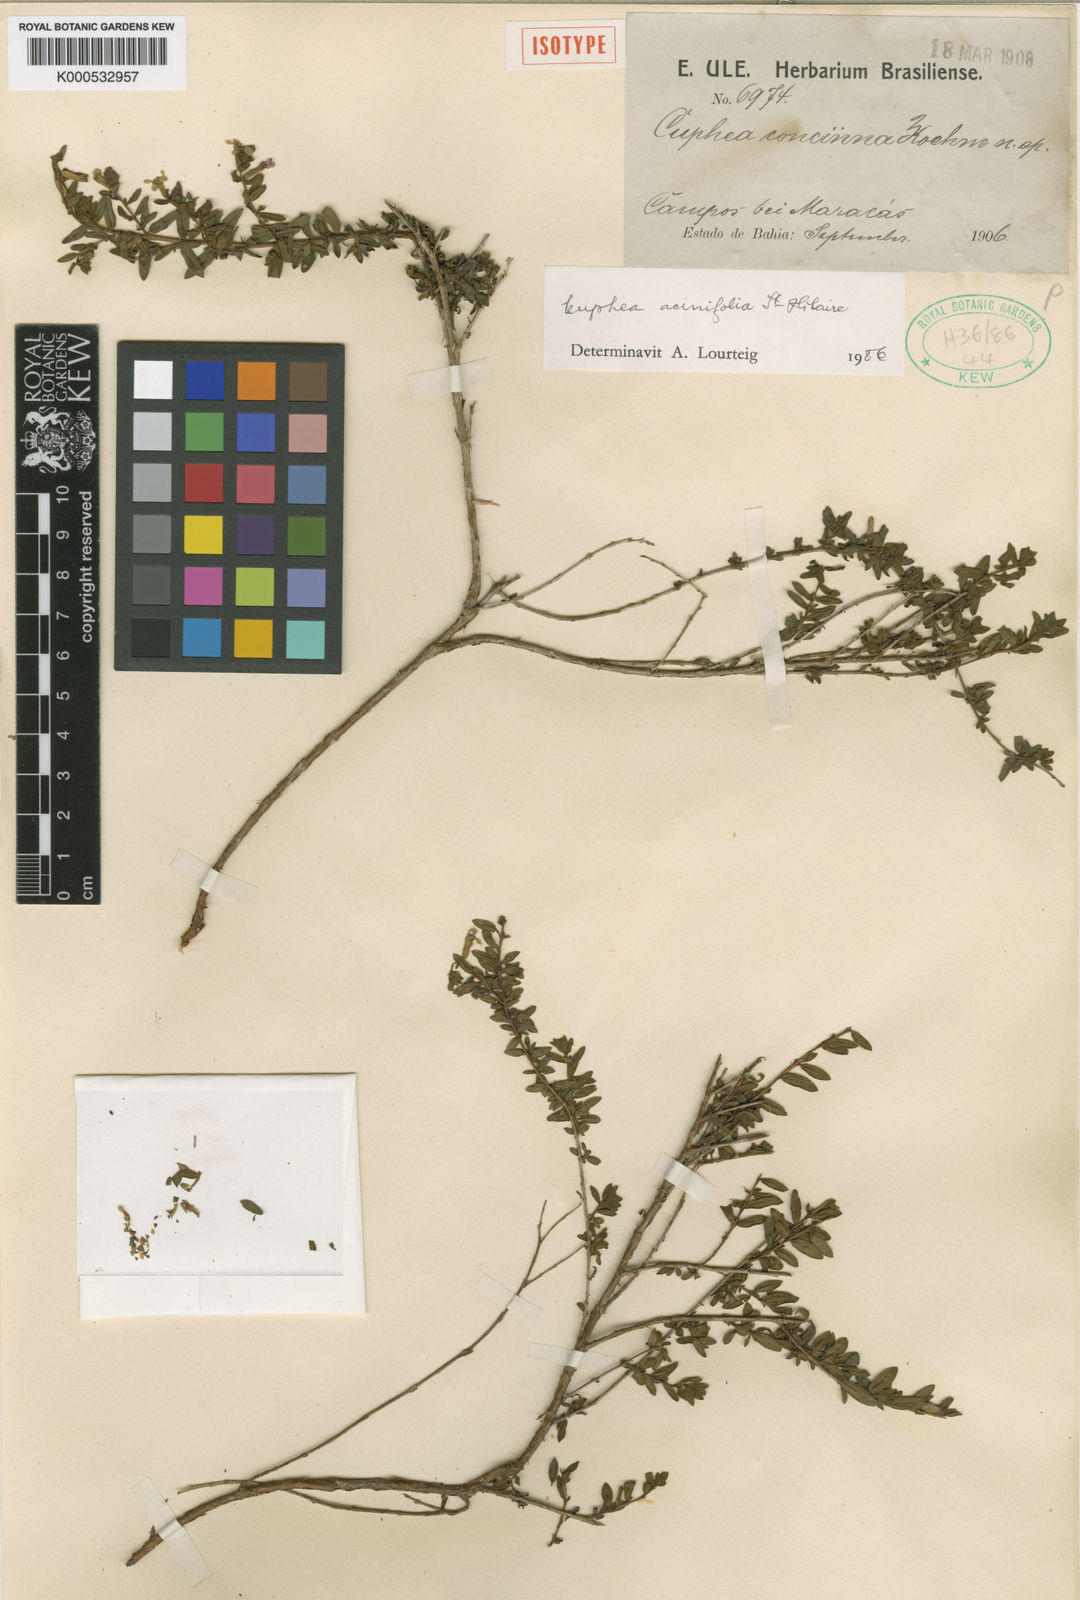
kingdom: Plantae
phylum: Tracheophyta
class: Magnoliopsida
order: Myrtales
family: Lythraceae
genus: Cuphea
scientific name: Cuphea acinifolia
